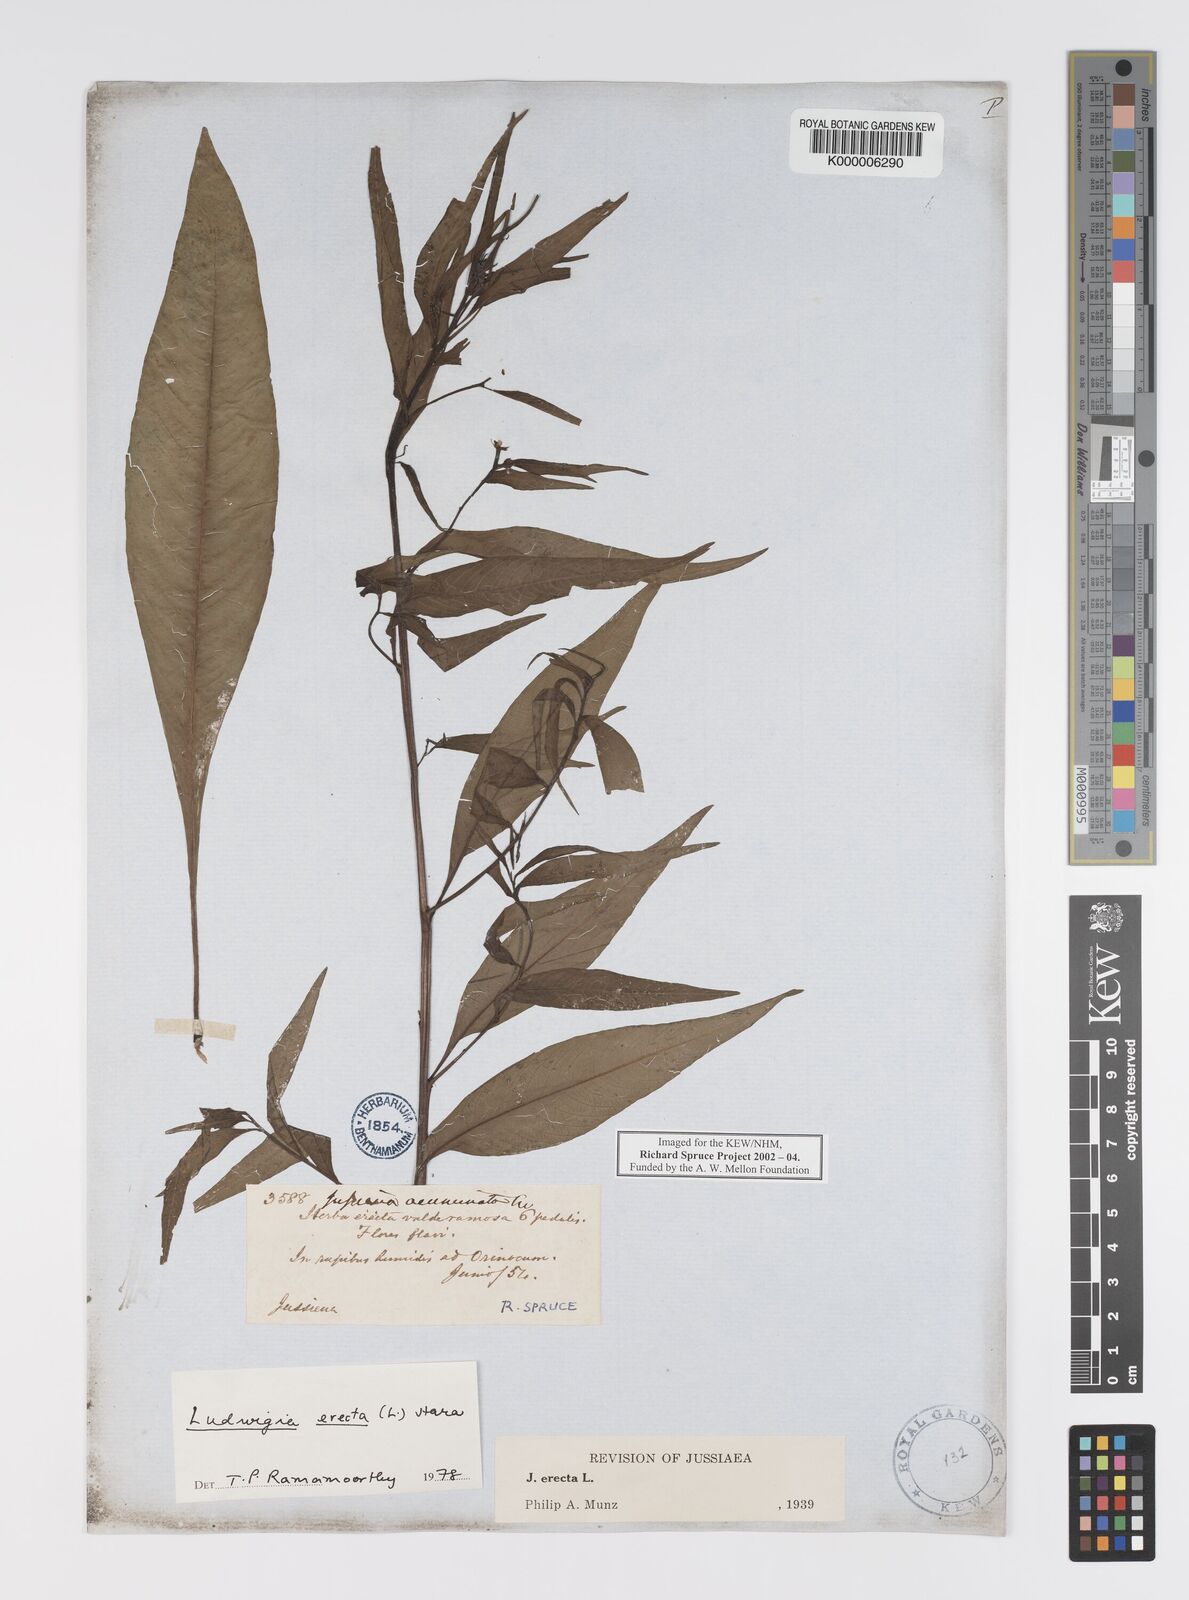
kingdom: Plantae
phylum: Tracheophyta
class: Magnoliopsida
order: Myrtales
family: Onagraceae
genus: Ludwigia
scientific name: Ludwigia erecta
